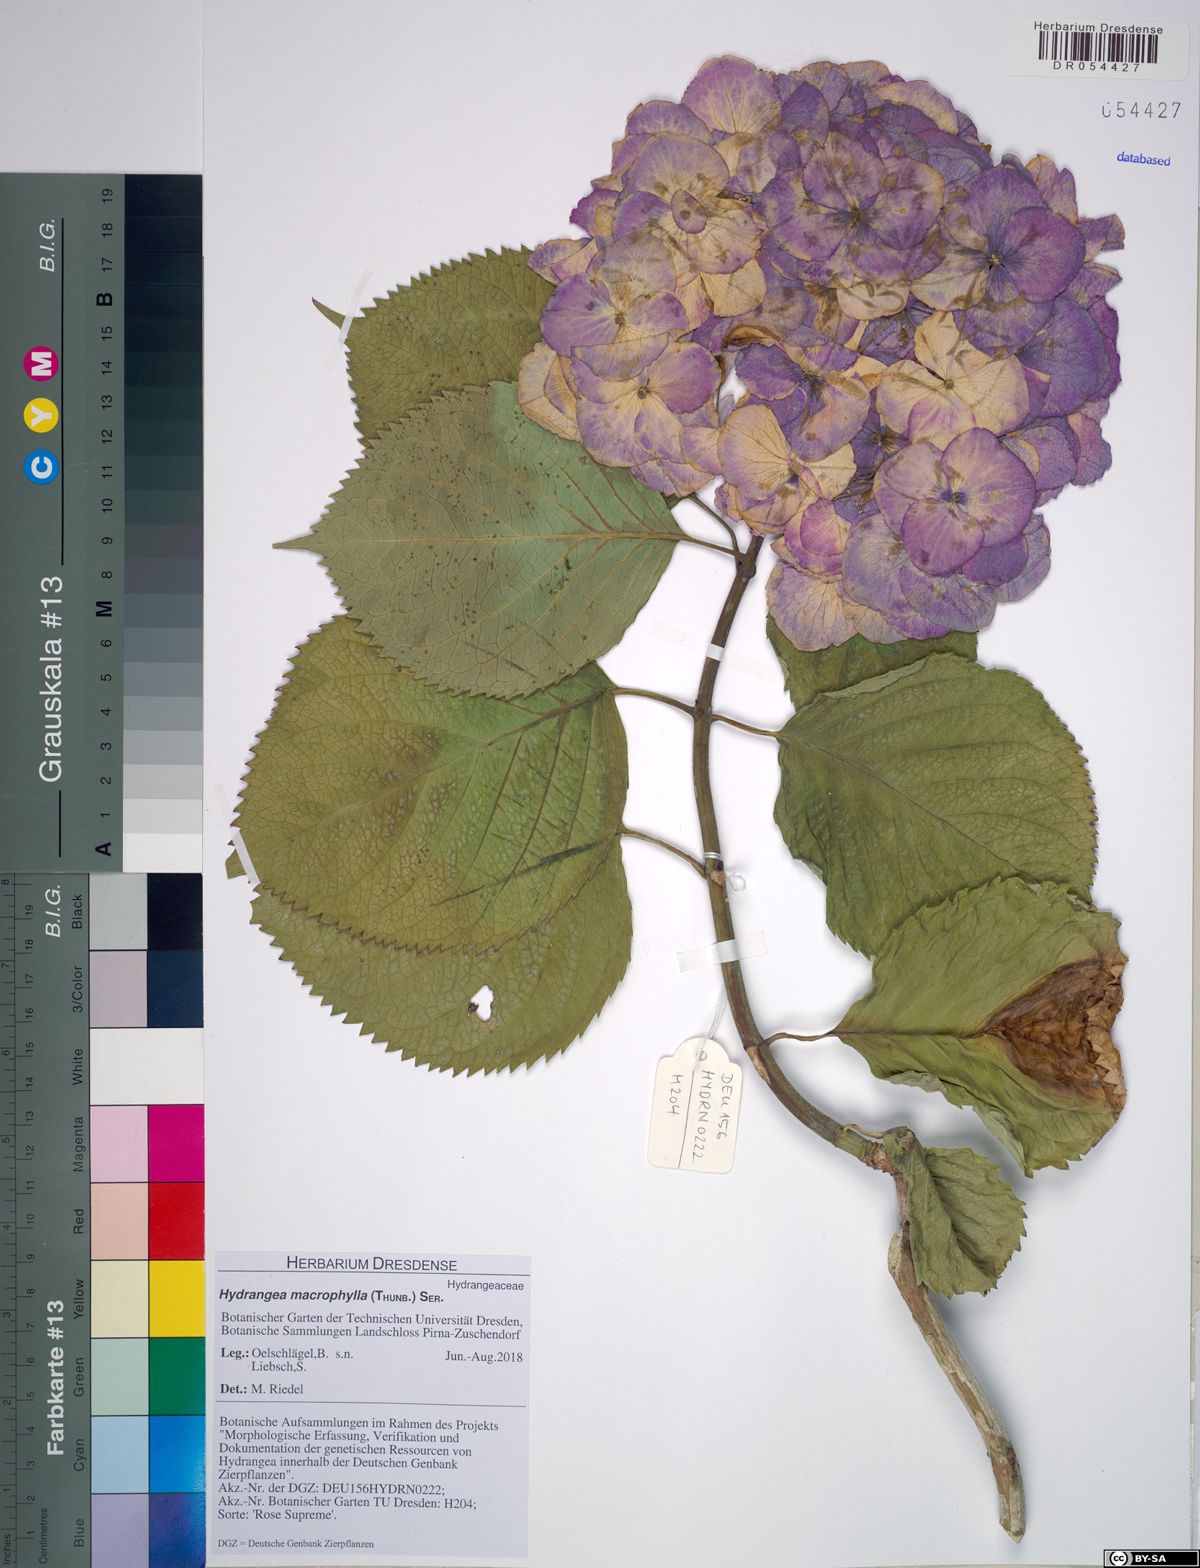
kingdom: Plantae
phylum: Tracheophyta
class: Magnoliopsida
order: Cornales
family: Hydrangeaceae
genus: Hydrangea
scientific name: Hydrangea macrophylla
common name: Hydrangea
